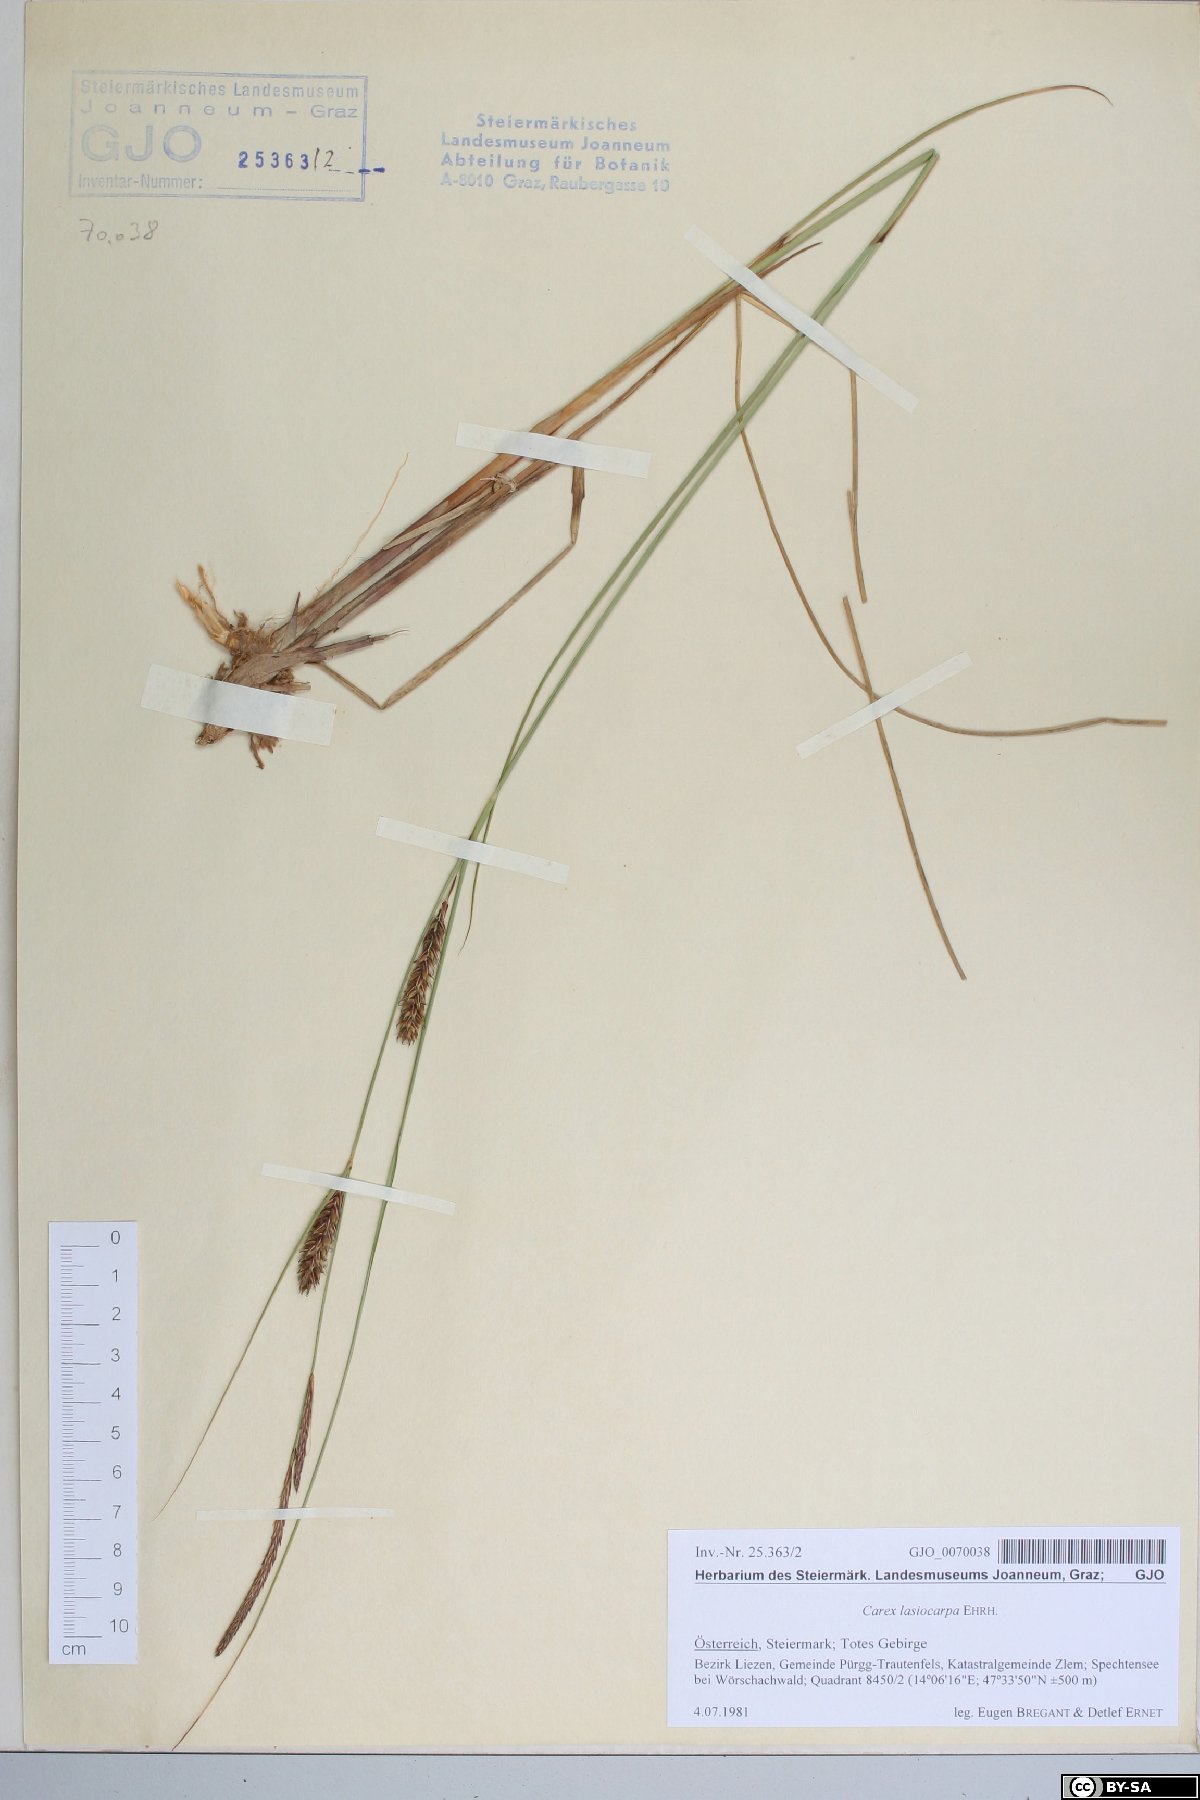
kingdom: Plantae
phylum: Tracheophyta
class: Liliopsida
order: Poales
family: Cyperaceae
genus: Carex
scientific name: Carex lasiocarpa
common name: Slender sedge
